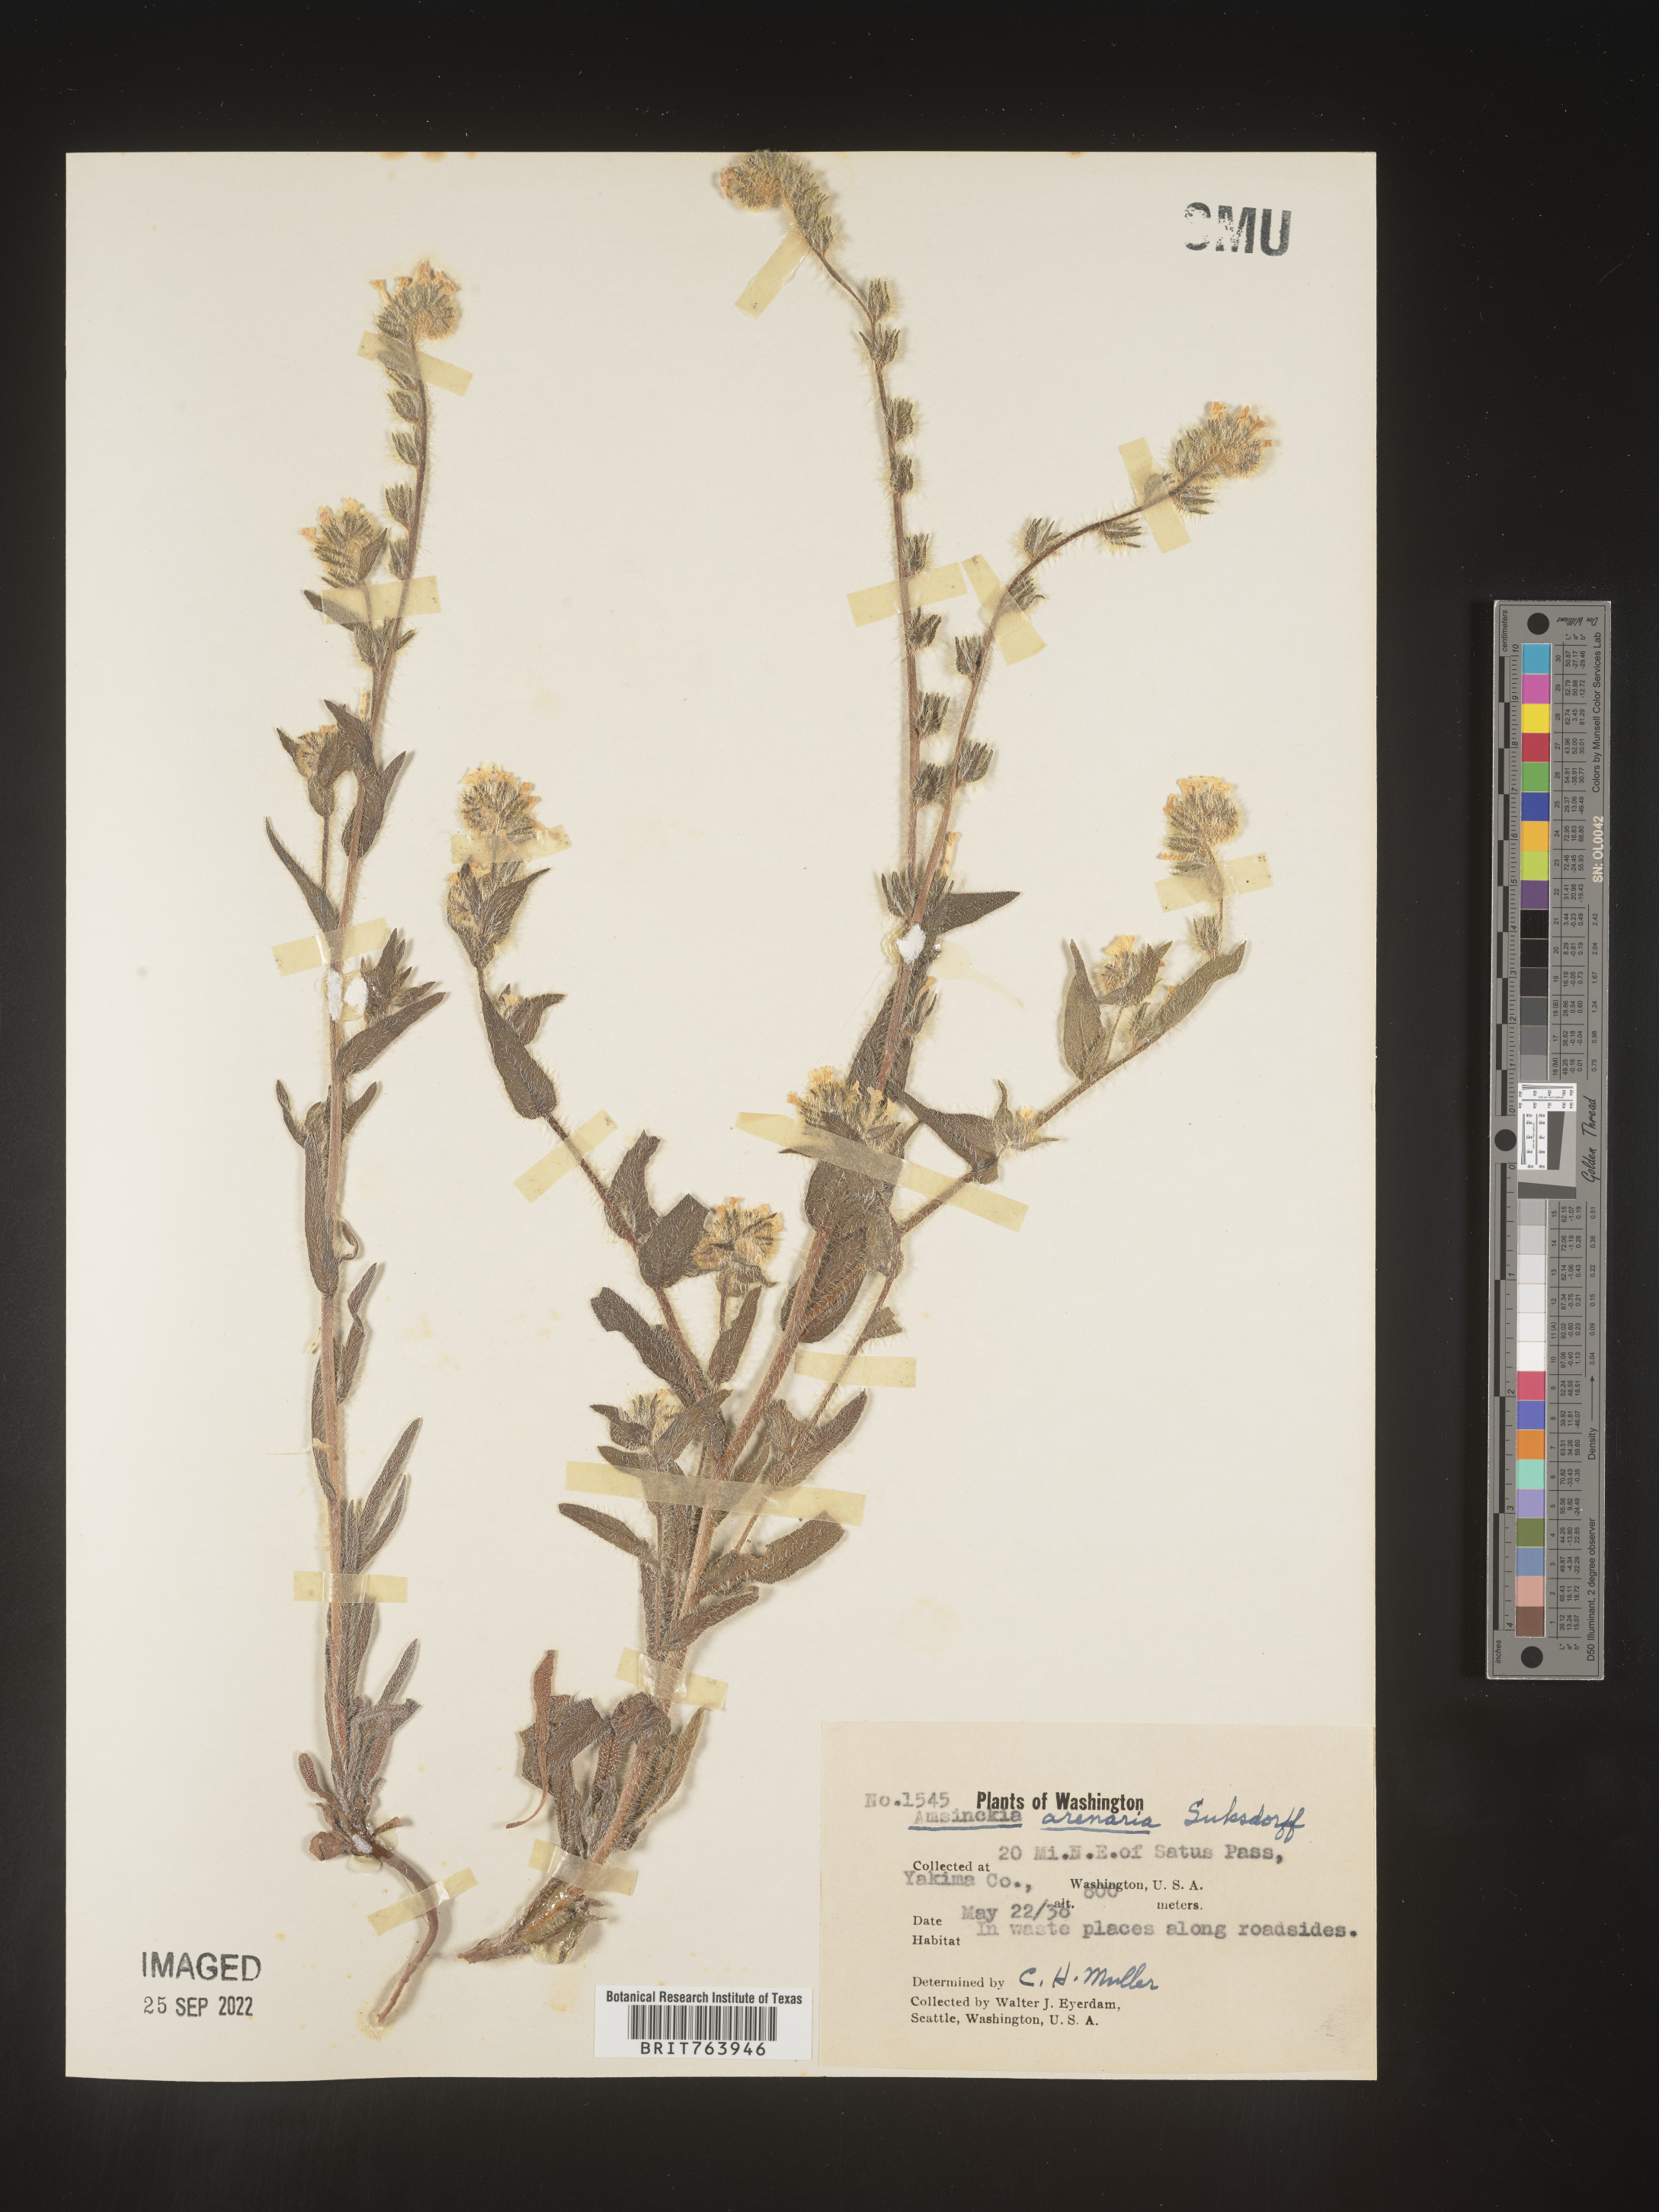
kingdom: Plantae
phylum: Tracheophyta
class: Magnoliopsida
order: Boraginales
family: Boraginaceae
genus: Amsinckia
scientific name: Amsinckia
